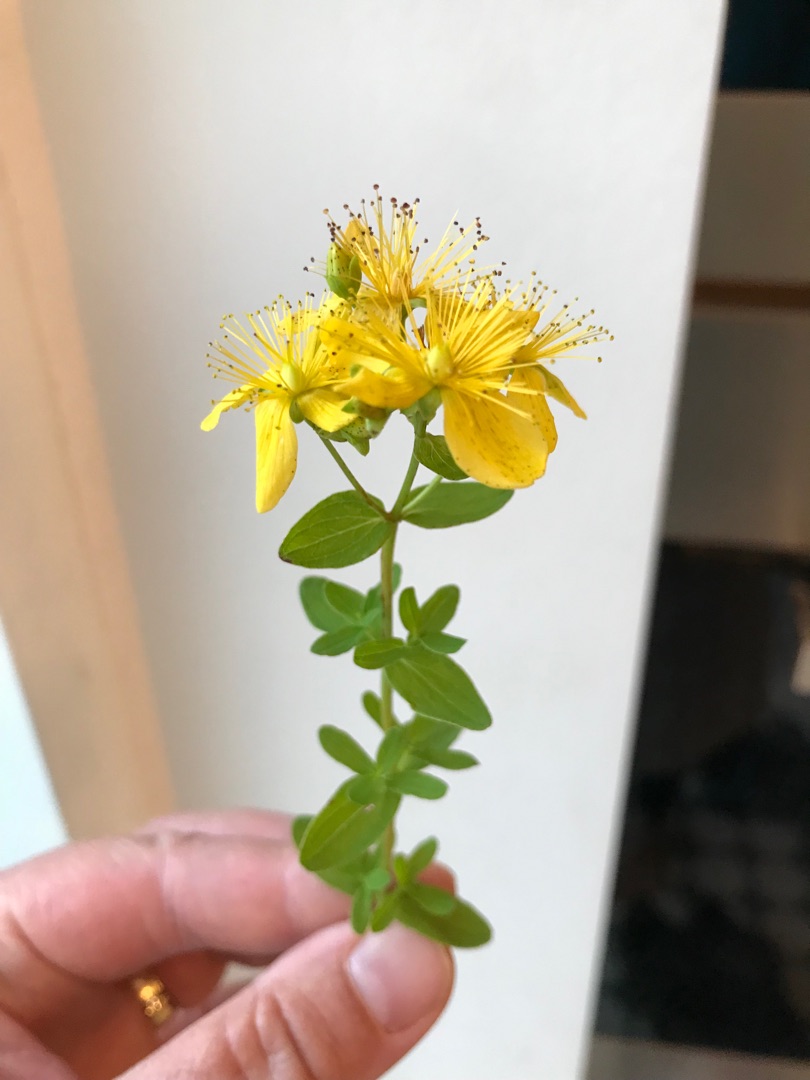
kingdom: Plantae
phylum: Tracheophyta
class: Magnoliopsida
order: Malpighiales
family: Hypericaceae
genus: Hypericum
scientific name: Hypericum maculatum
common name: Kantet perikon
